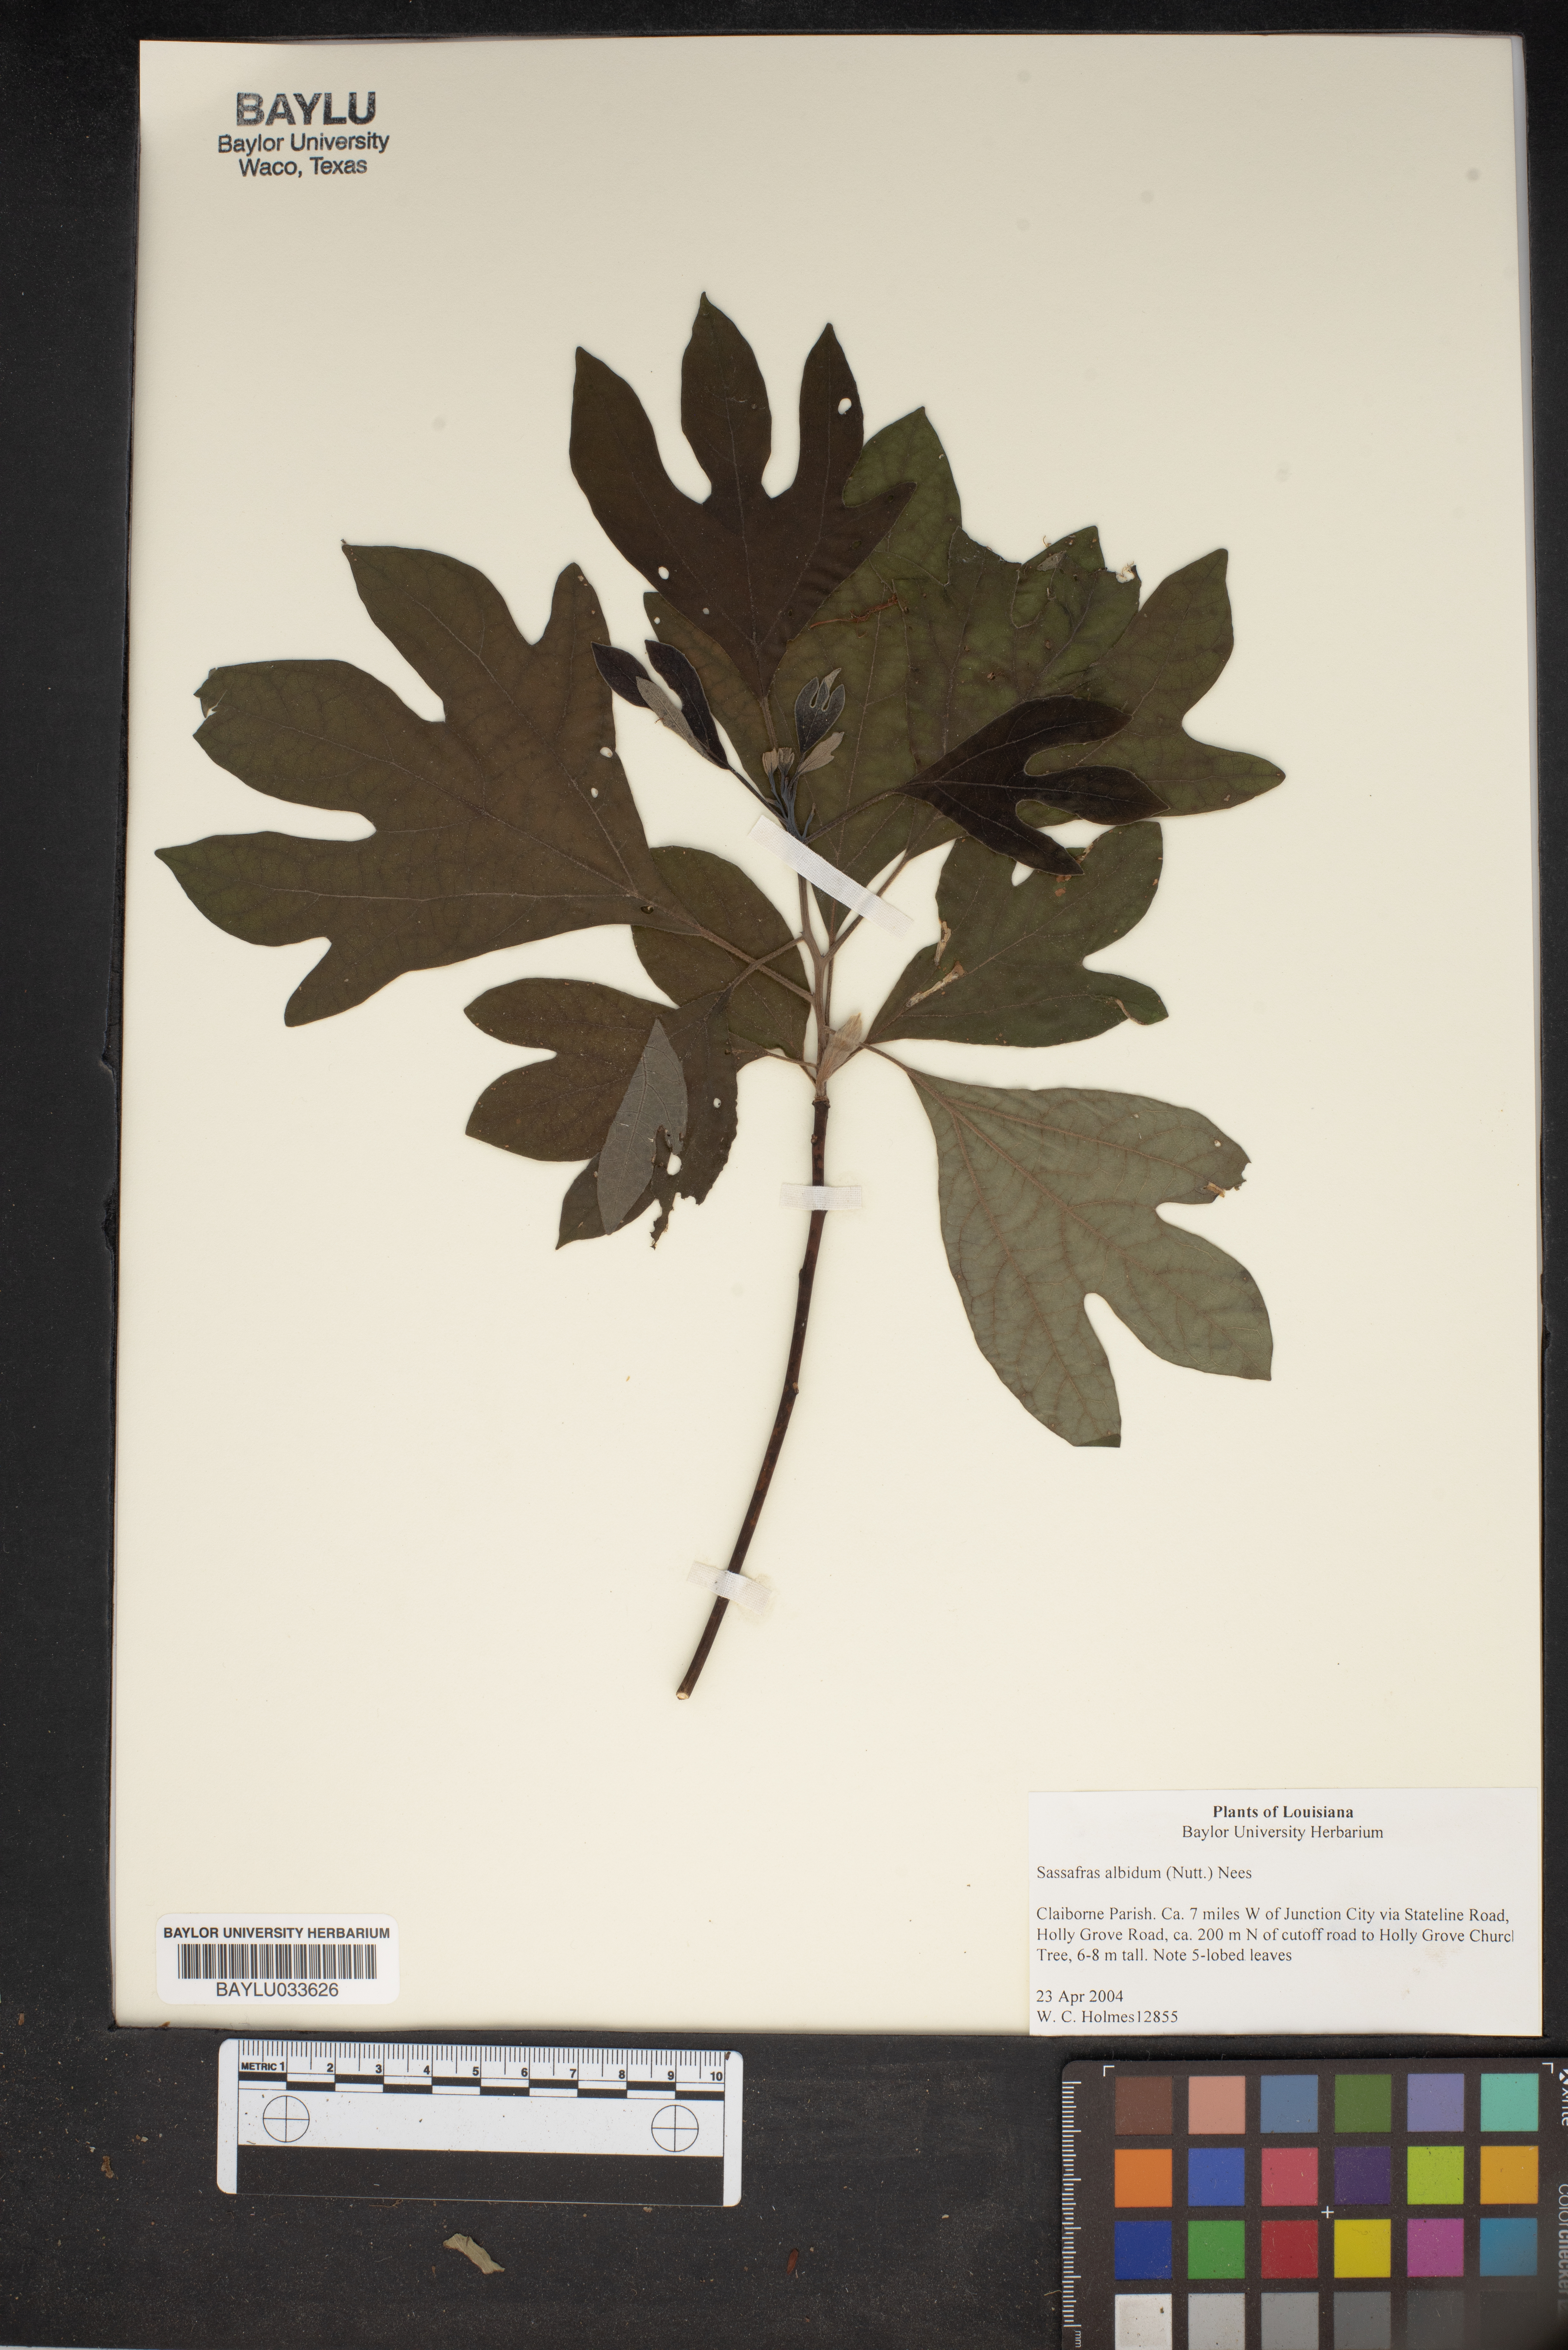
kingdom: Plantae
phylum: Tracheophyta
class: Magnoliopsida
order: Laurales
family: Lauraceae
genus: Sassafras
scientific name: Sassafras albidum
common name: Sassafras
